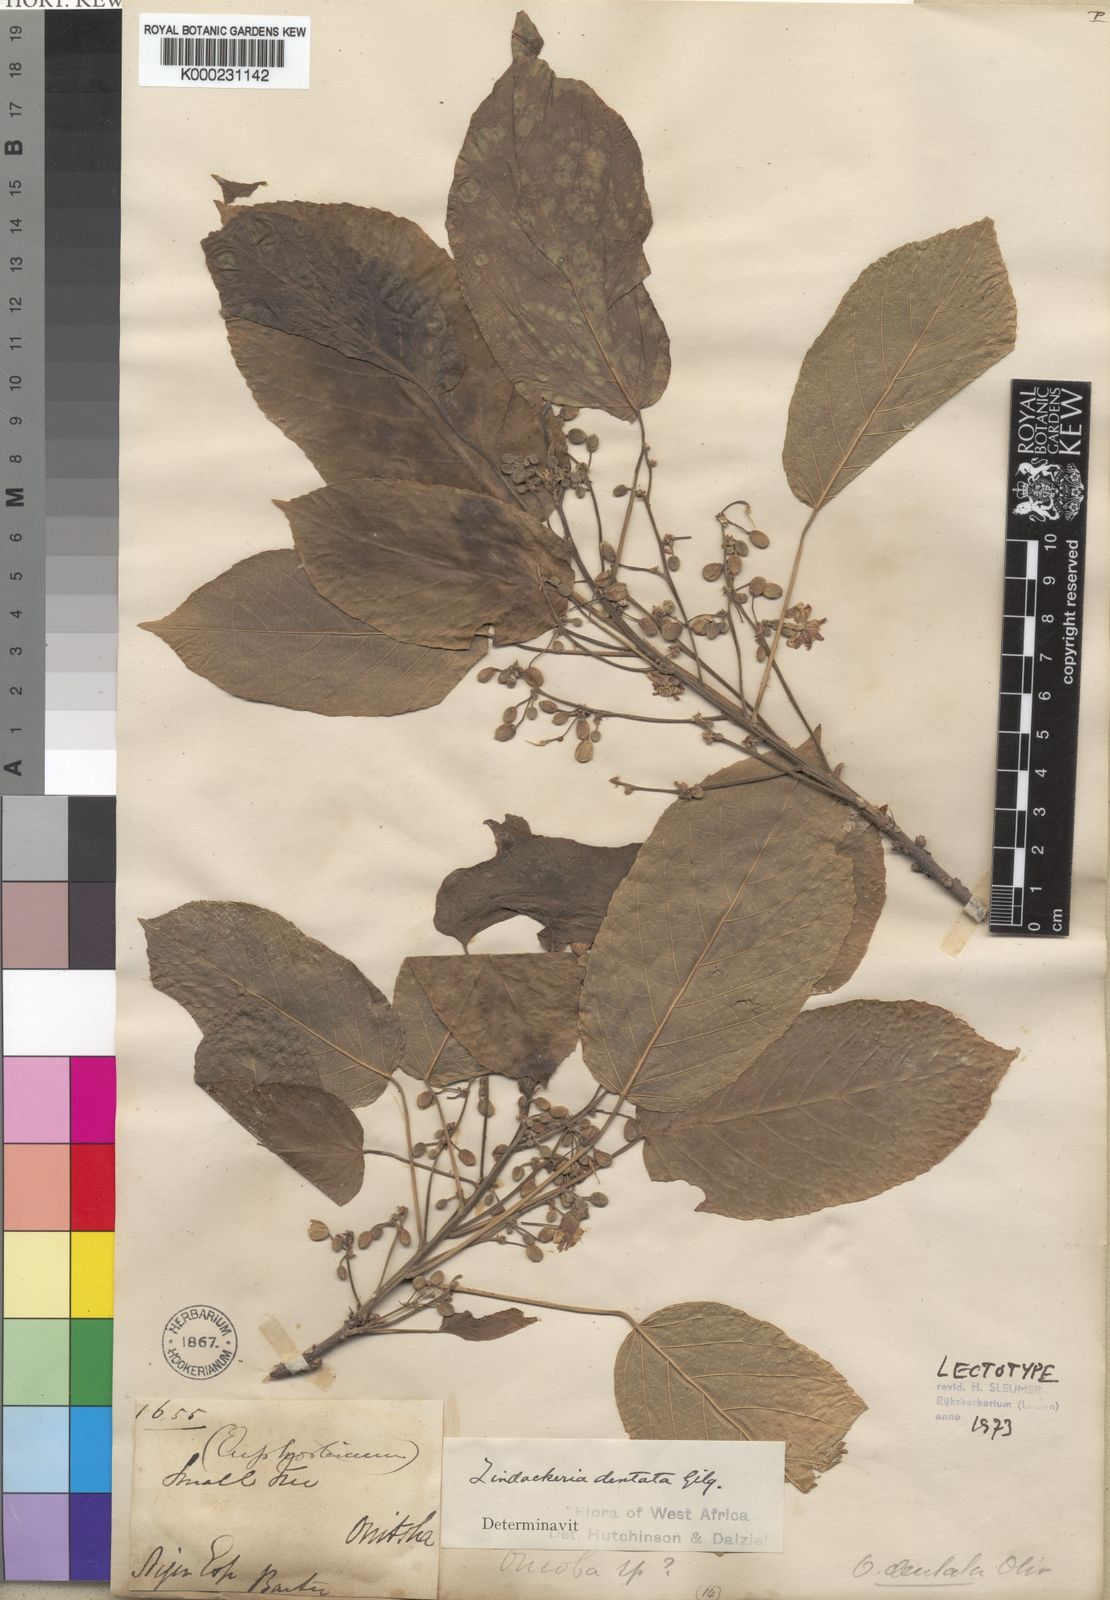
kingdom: Plantae
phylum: Tracheophyta
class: Magnoliopsida
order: Malpighiales
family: Achariaceae
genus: Lindackeria
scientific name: Lindackeria dentata
